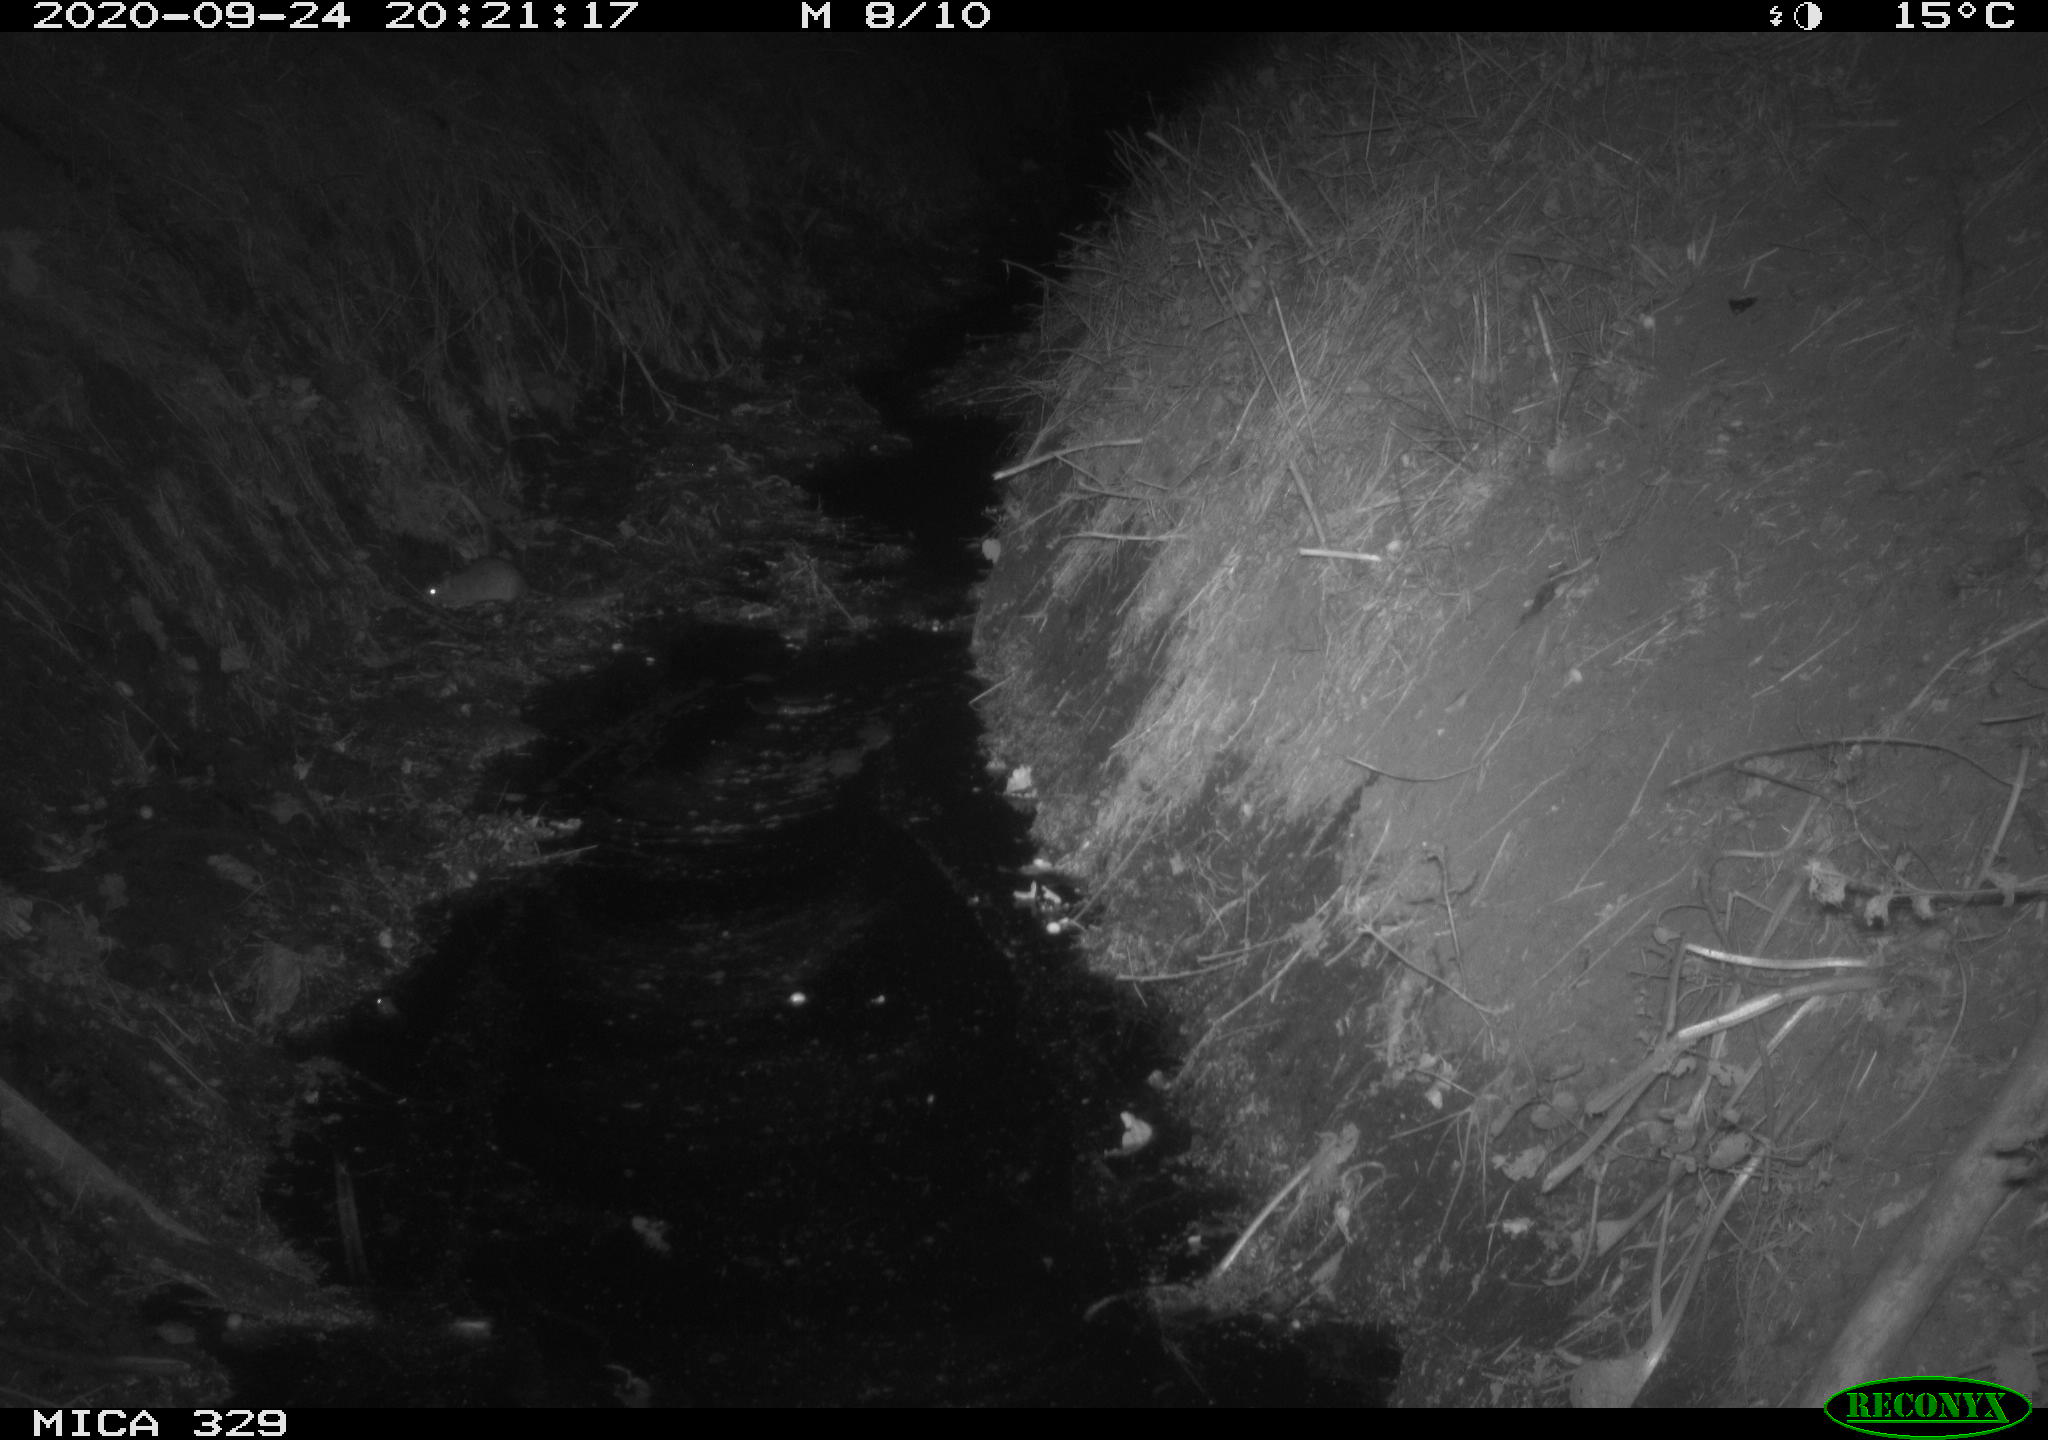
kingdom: Animalia
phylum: Chordata
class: Mammalia
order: Rodentia
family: Muridae
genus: Rattus
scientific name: Rattus norvegicus
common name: Brown rat
